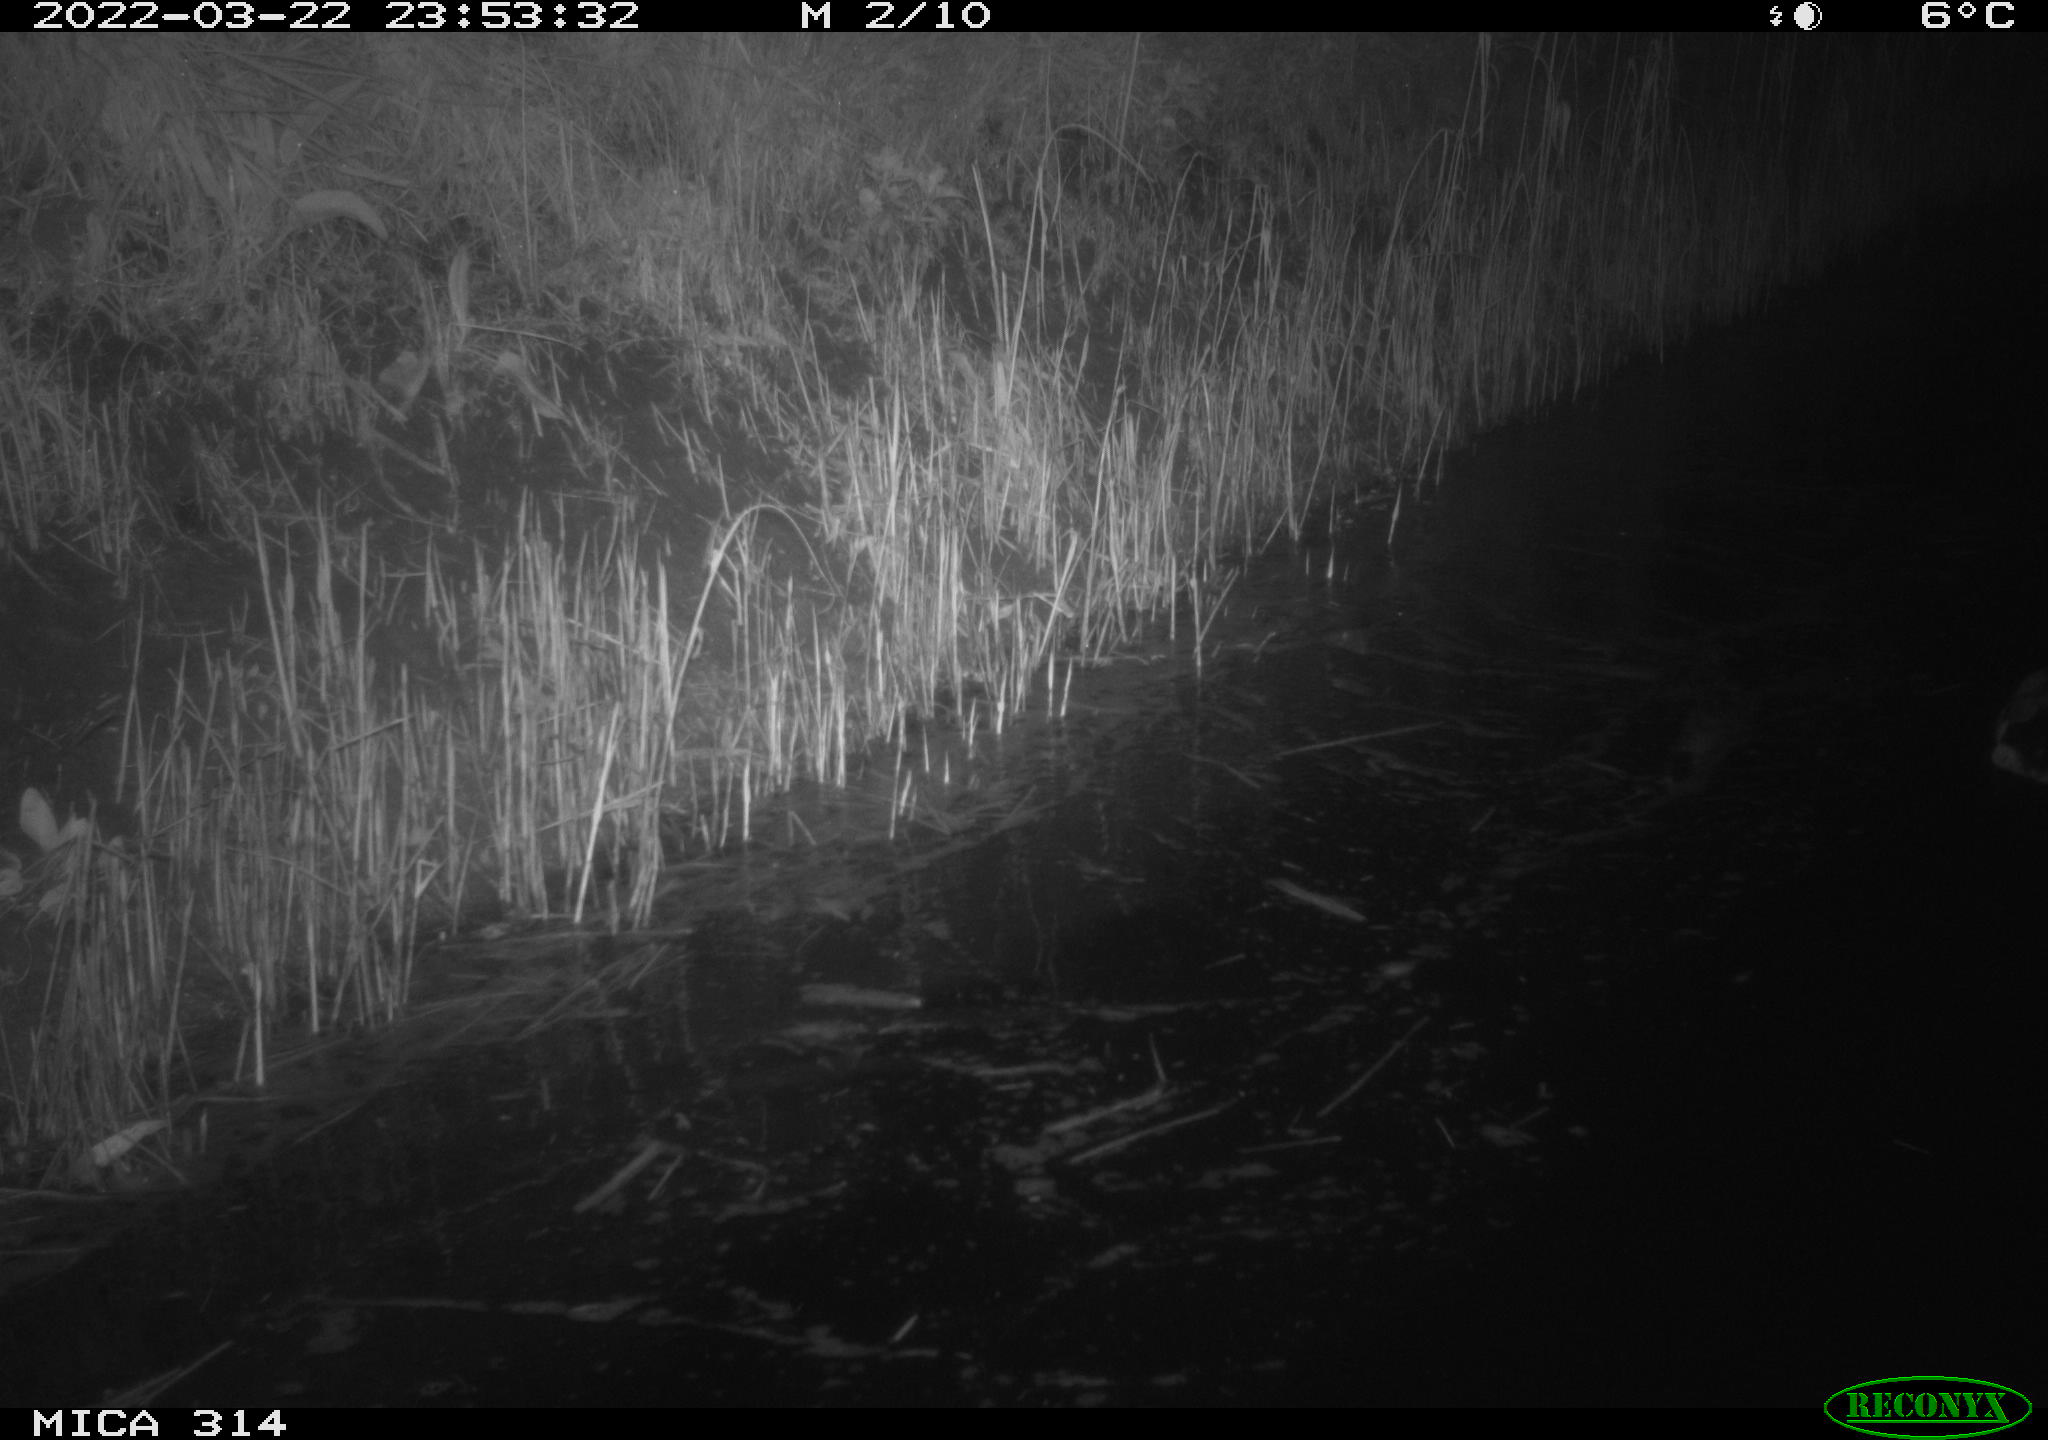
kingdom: Animalia
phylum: Chordata
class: Aves
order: Anseriformes
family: Anatidae
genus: Anas
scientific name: Anas platyrhynchos
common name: Mallard
